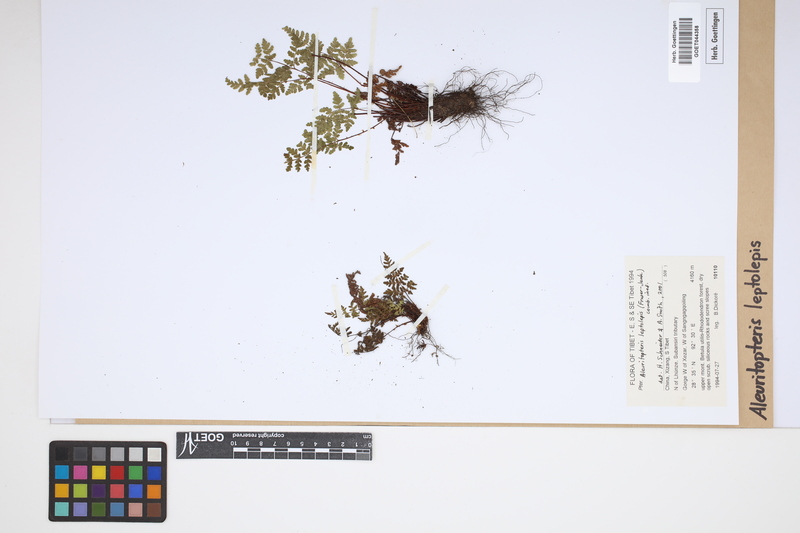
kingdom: Plantae
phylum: Tracheophyta
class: Polypodiopsida
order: Polypodiales
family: Pteridaceae
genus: Aleuritopteris
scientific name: Aleuritopteris leptolepis
